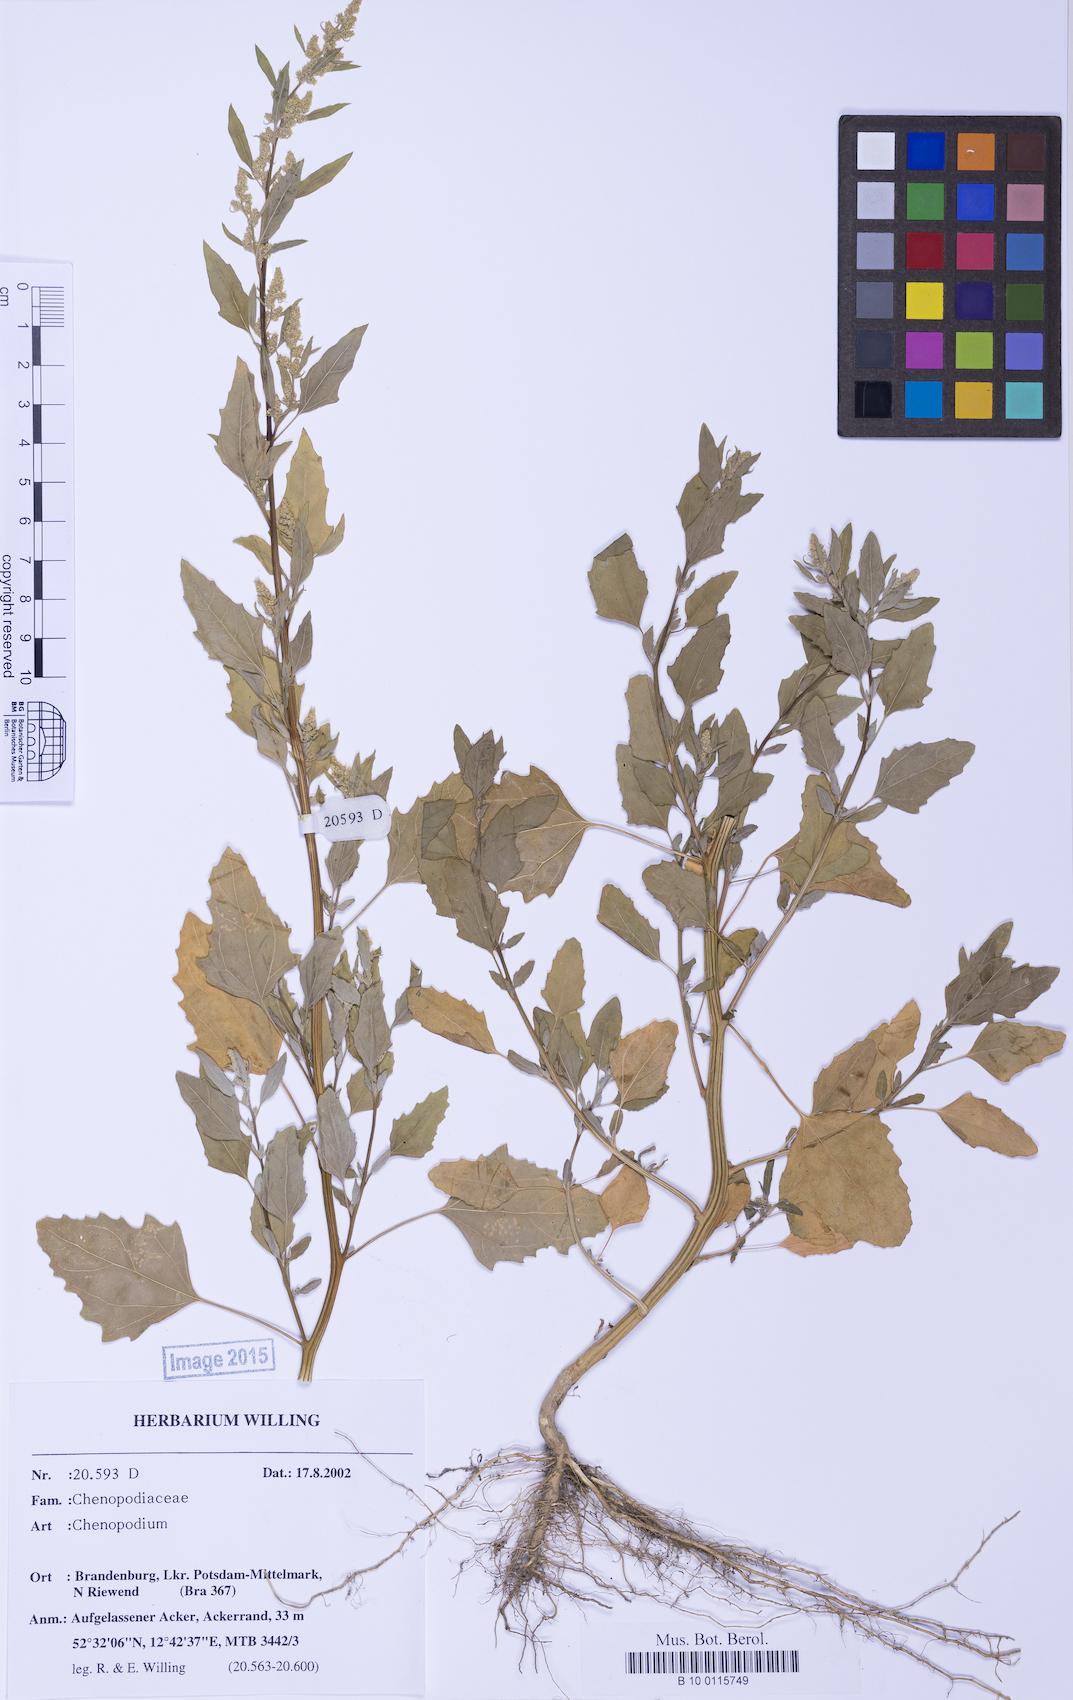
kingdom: Plantae
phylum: Tracheophyta
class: Magnoliopsida
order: Caryophyllales
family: Amaranthaceae
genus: Chenopodium
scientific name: Chenopodium album
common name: Fat-hen
